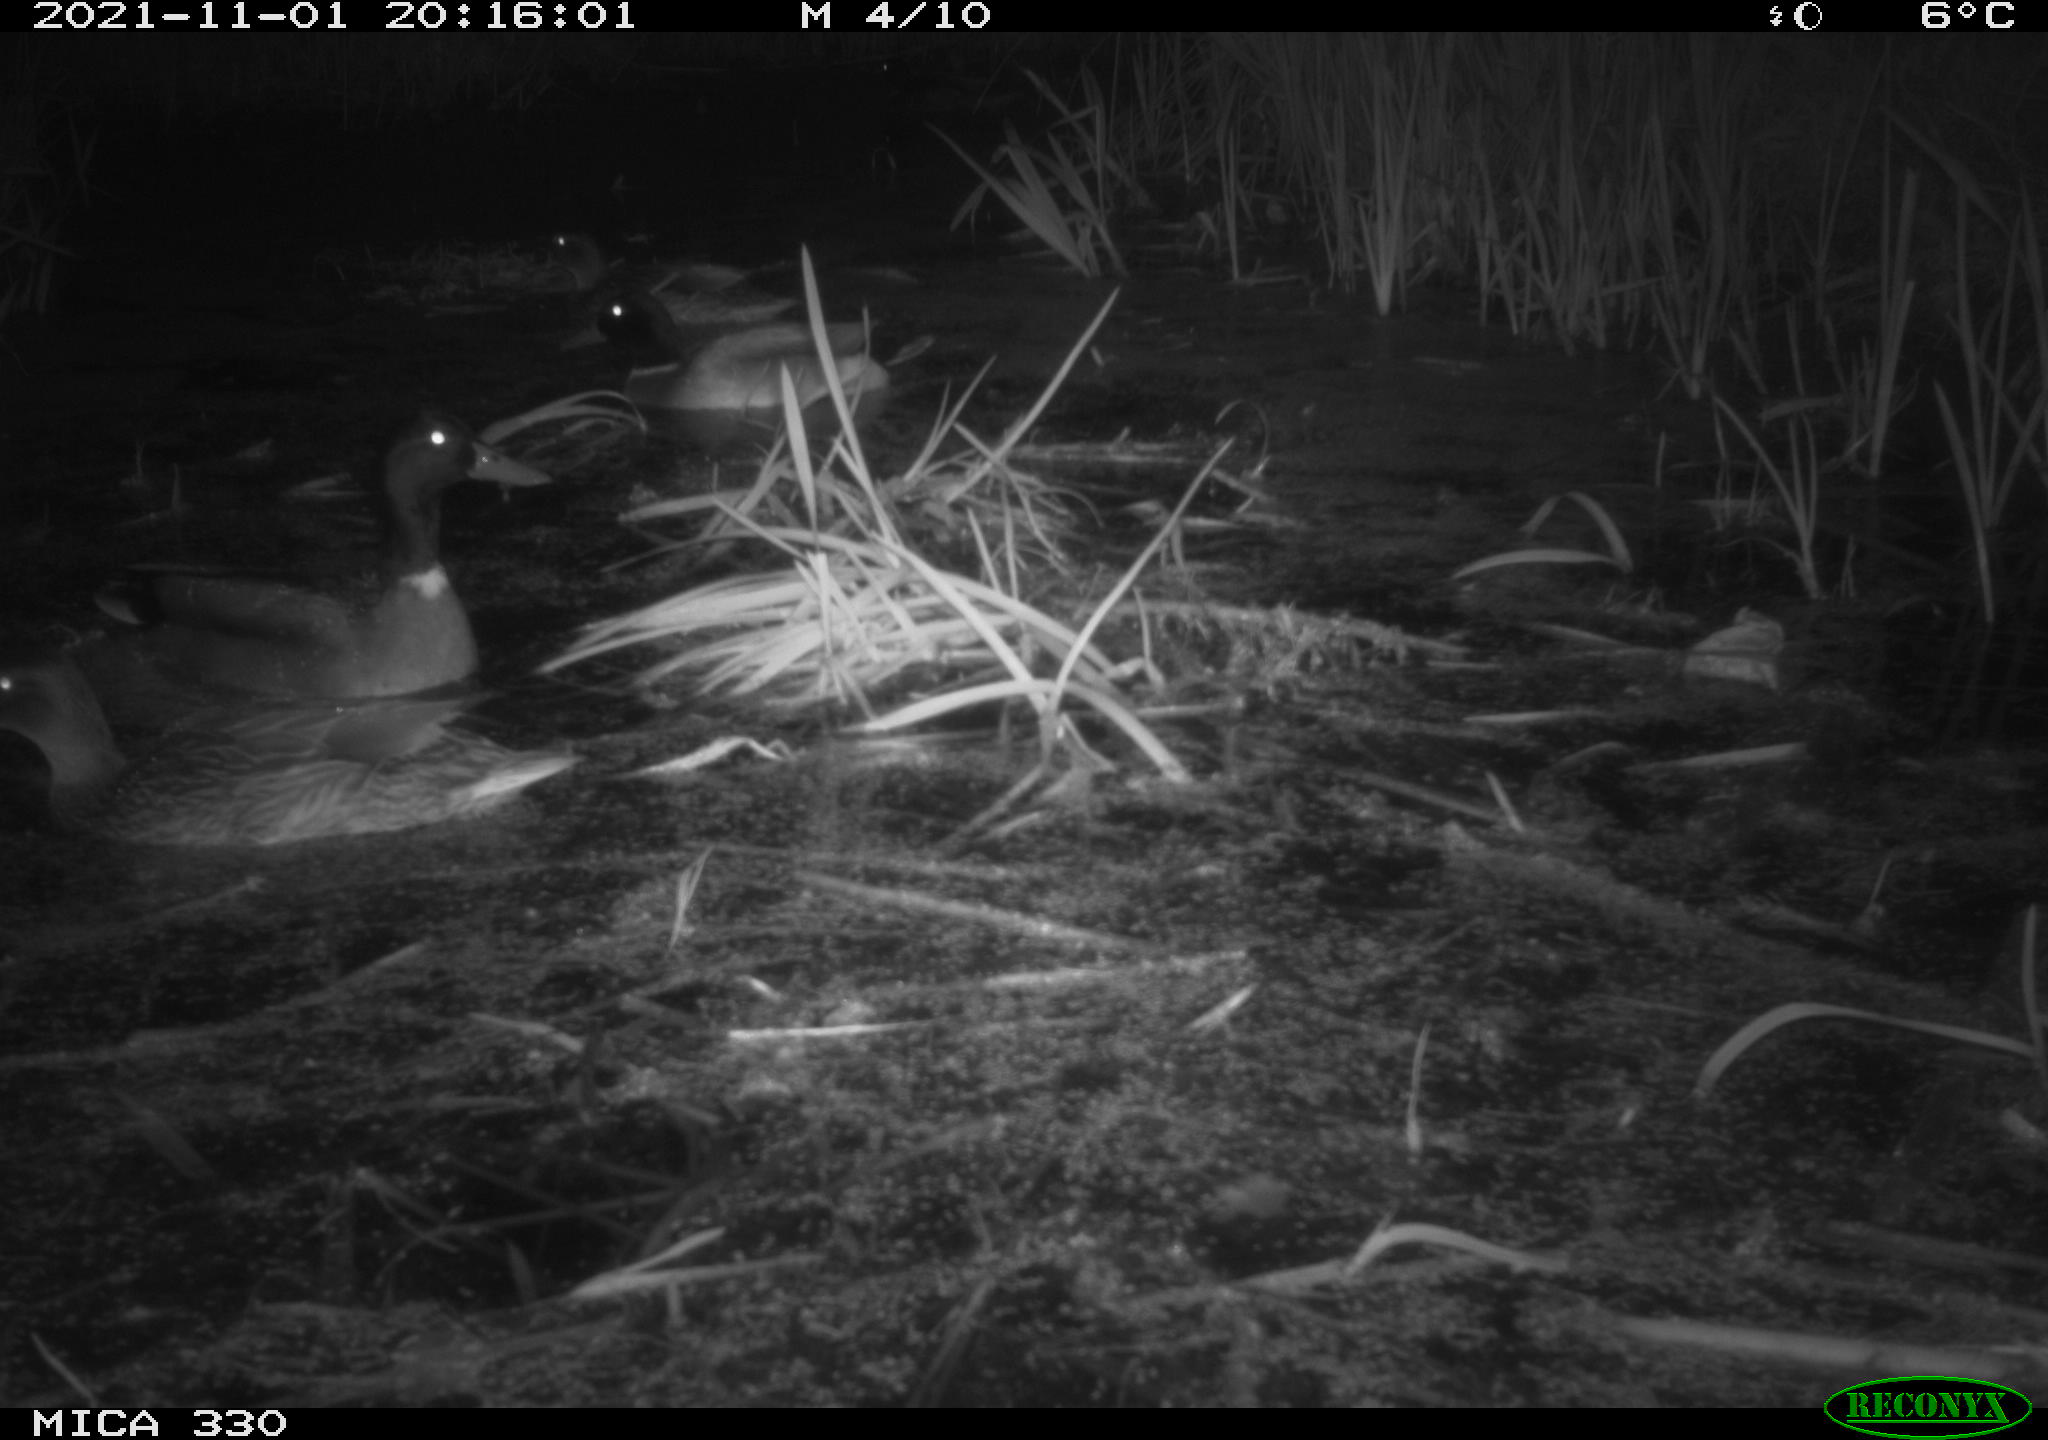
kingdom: Animalia
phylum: Chordata
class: Aves
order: Anseriformes
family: Anatidae
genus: Anas
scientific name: Anas platyrhynchos
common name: Mallard
